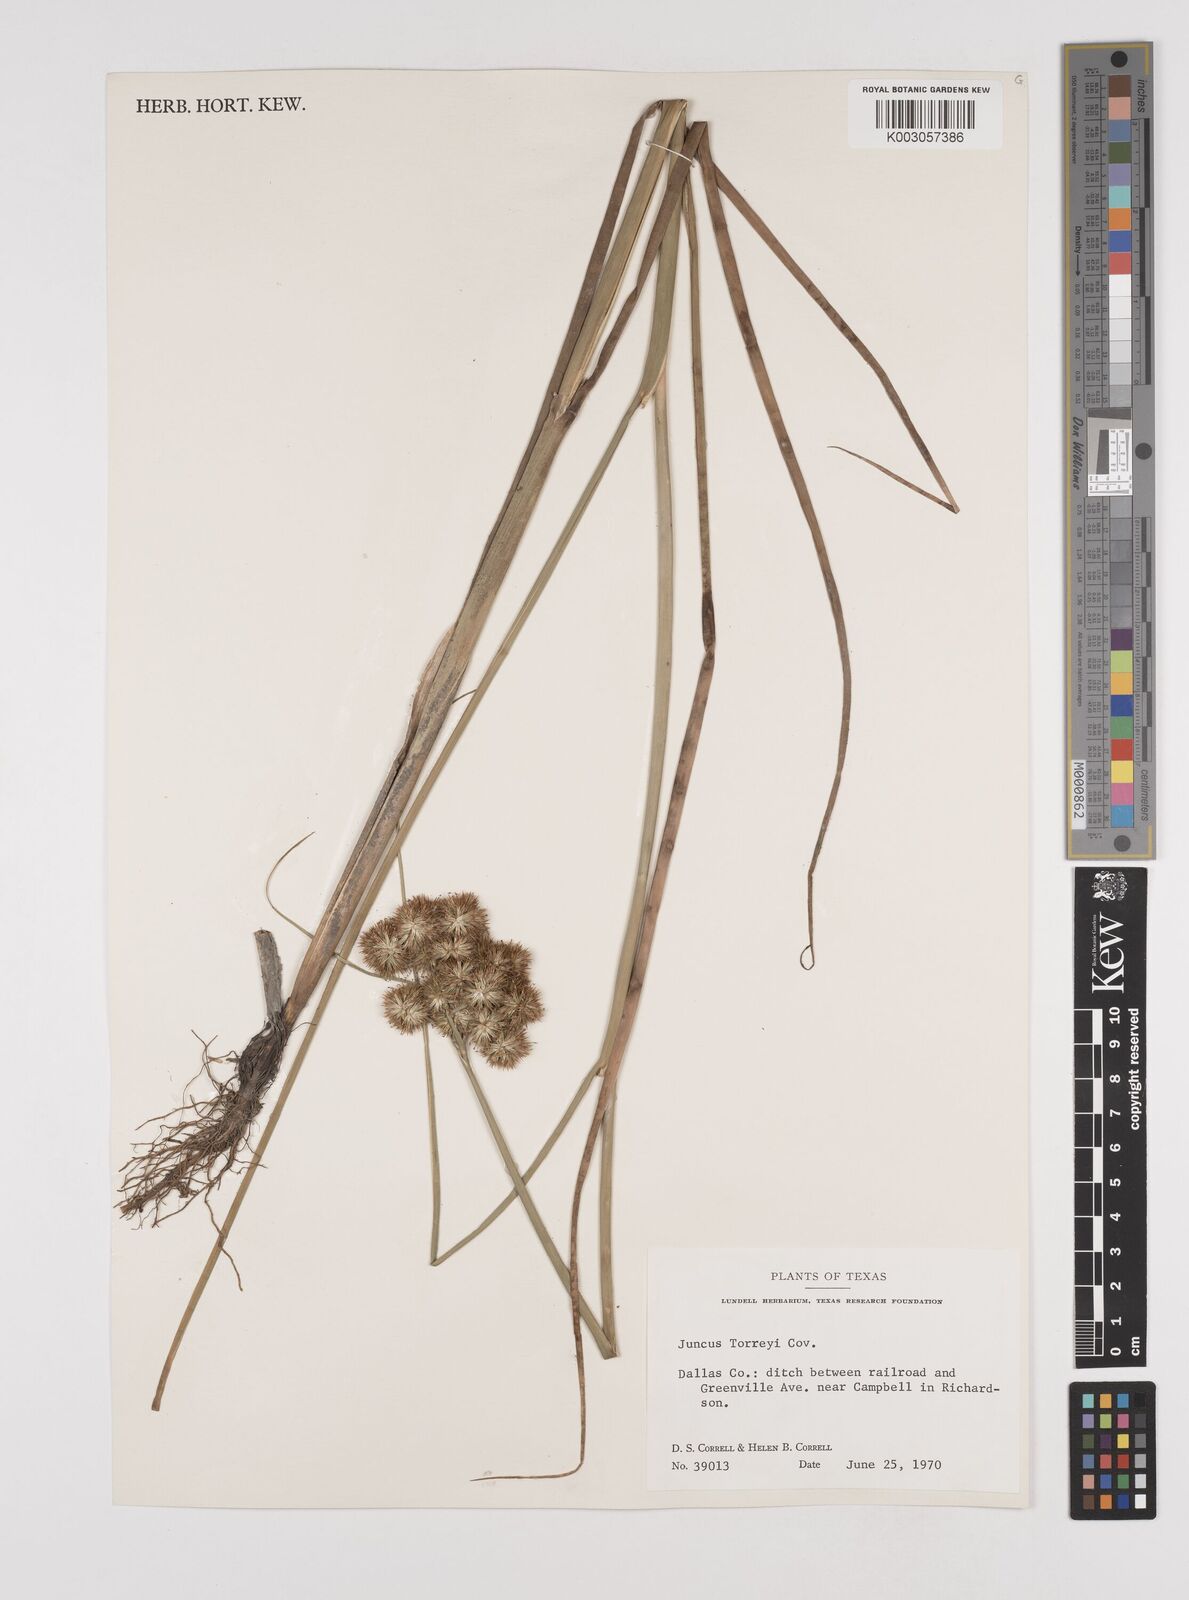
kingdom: Plantae
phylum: Tracheophyta
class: Liliopsida
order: Poales
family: Juncaceae
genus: Juncus
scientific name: Juncus torreyi
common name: Torrey's rush
